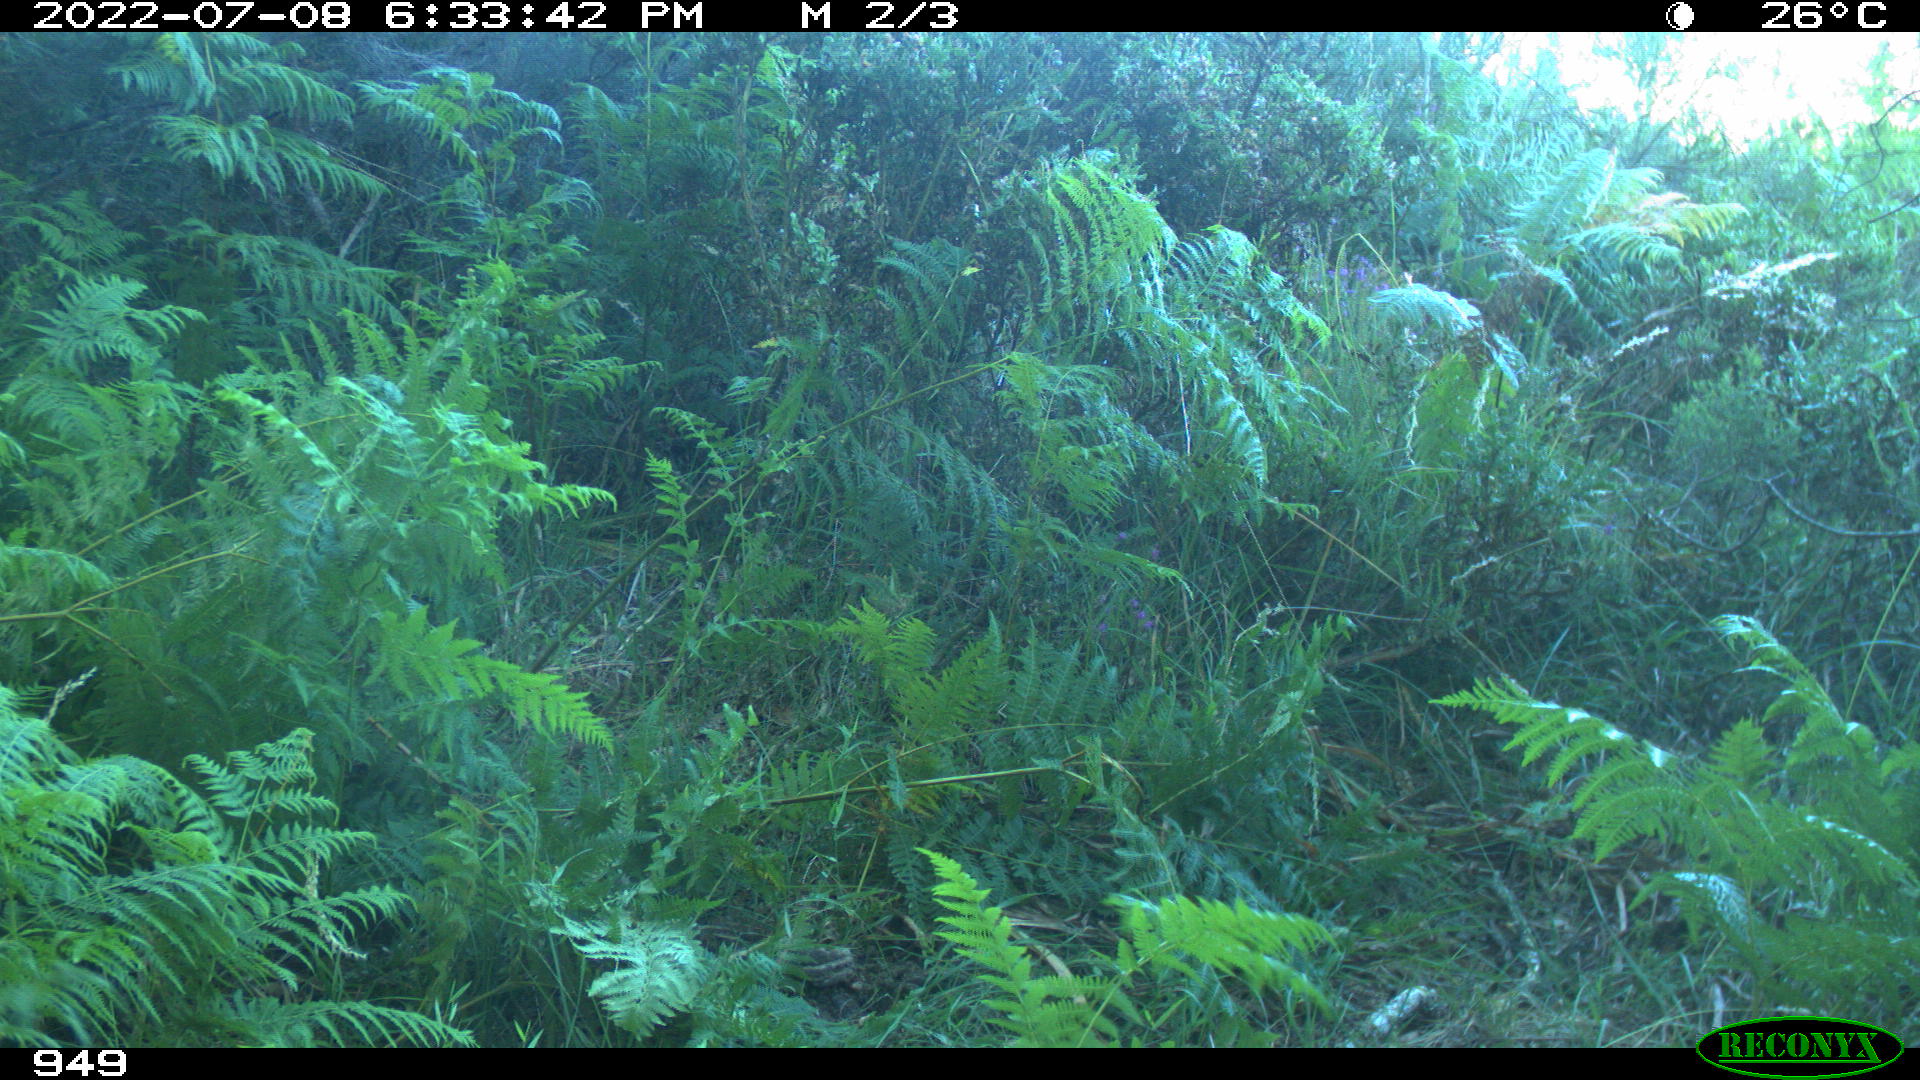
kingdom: Animalia
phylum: Chordata
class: Mammalia
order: Perissodactyla
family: Equidae
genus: Equus
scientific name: Equus caballus
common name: Horse
